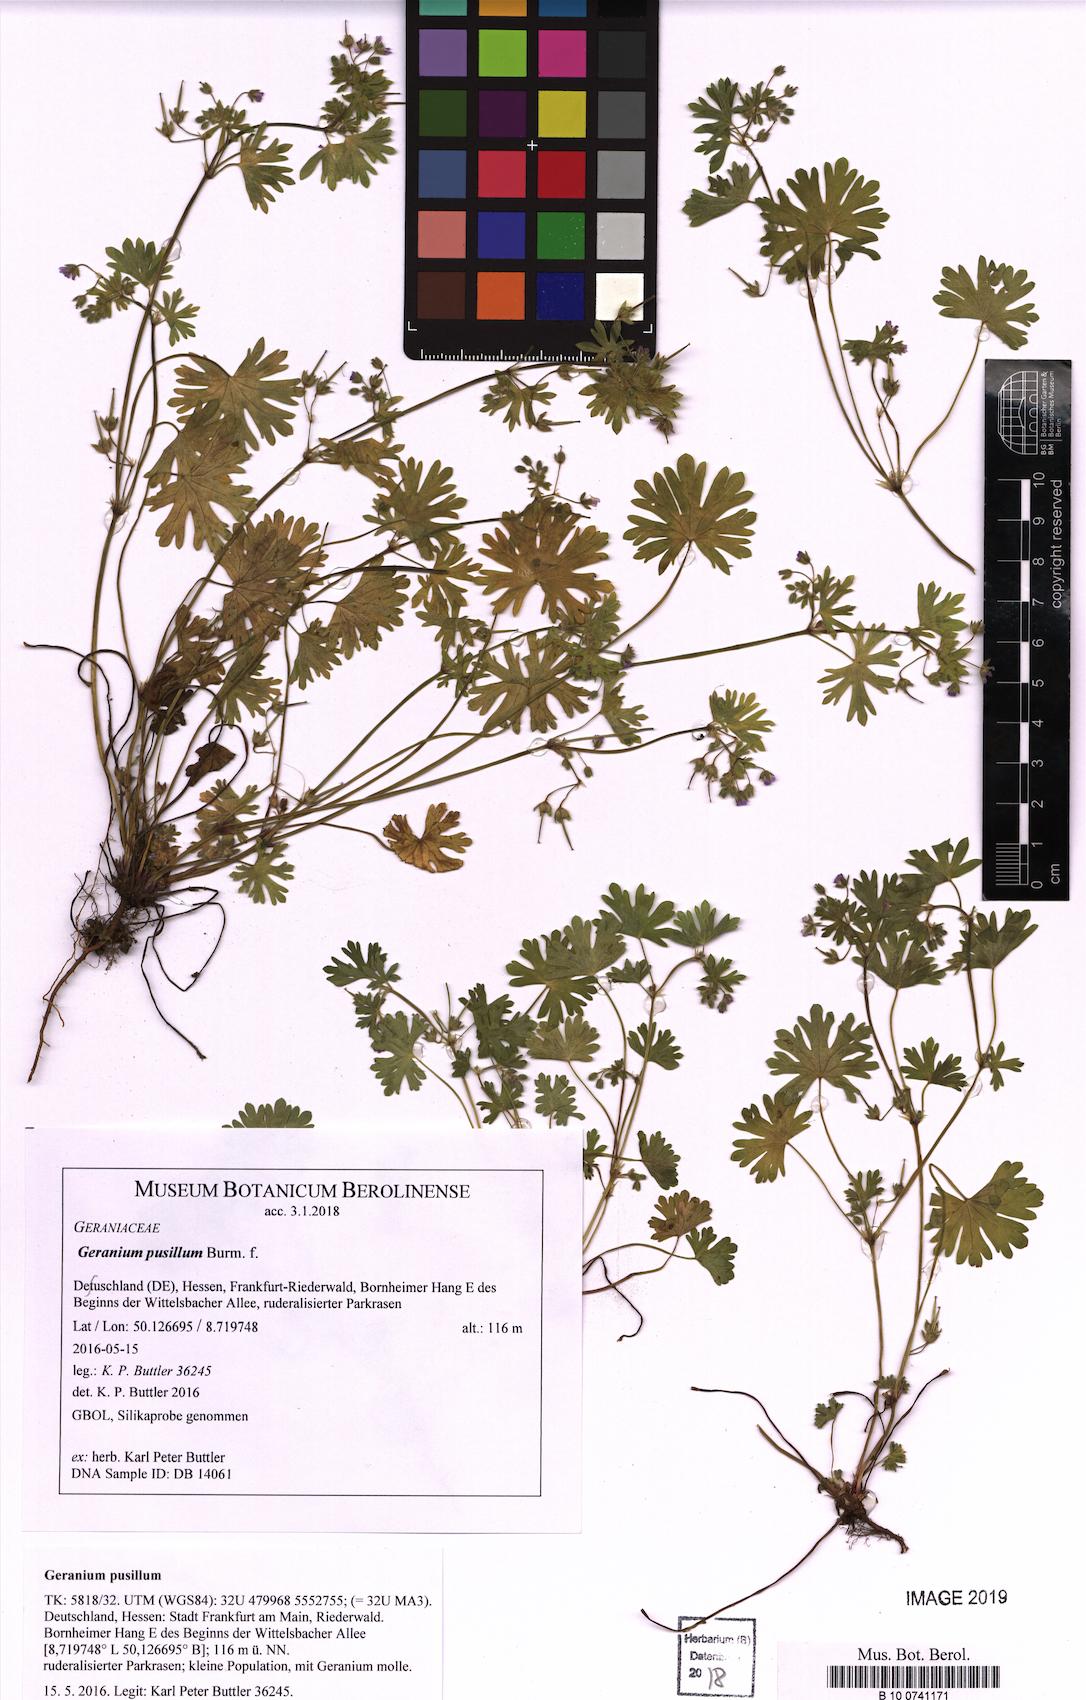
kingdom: Plantae
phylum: Tracheophyta
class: Magnoliopsida
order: Geraniales
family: Geraniaceae
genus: Geranium
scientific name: Geranium pusillum
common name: Small geranium
